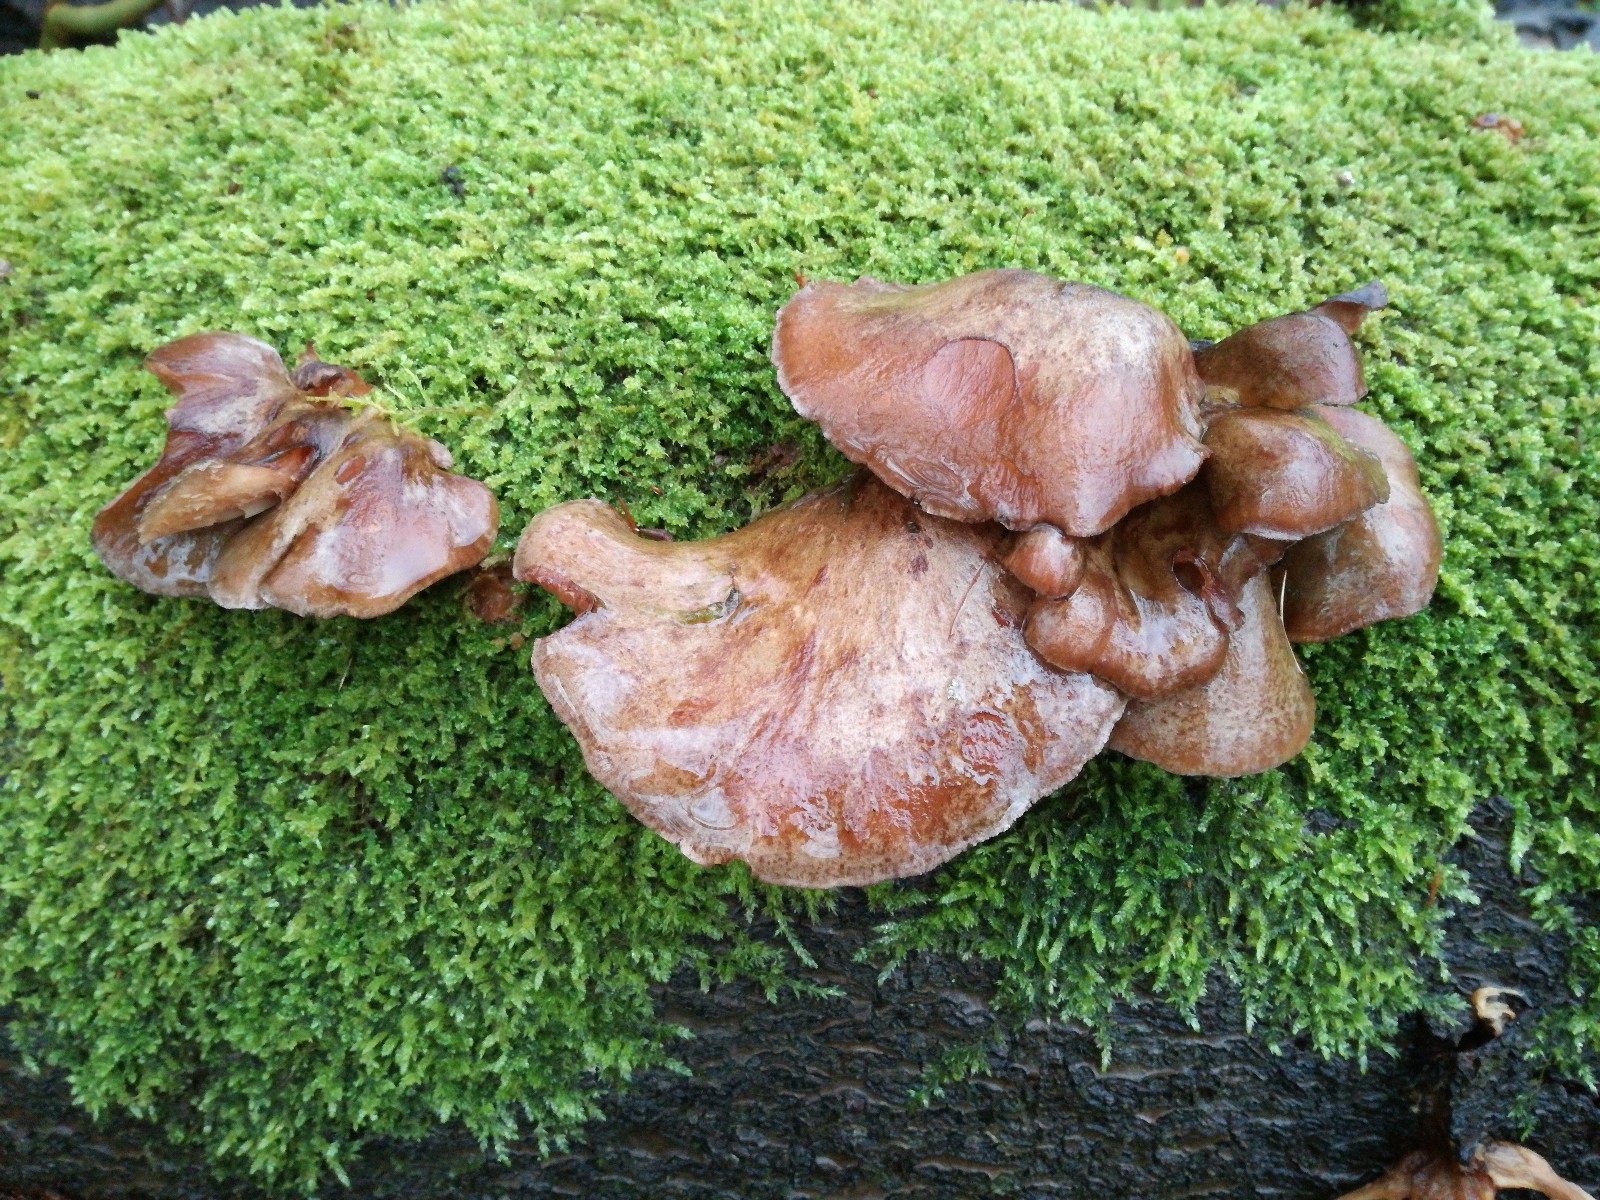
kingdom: Fungi
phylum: Basidiomycota
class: Agaricomycetes
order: Agaricales
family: Sarcomyxaceae
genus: Sarcomyxa
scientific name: Sarcomyxa serotina
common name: gummihat
